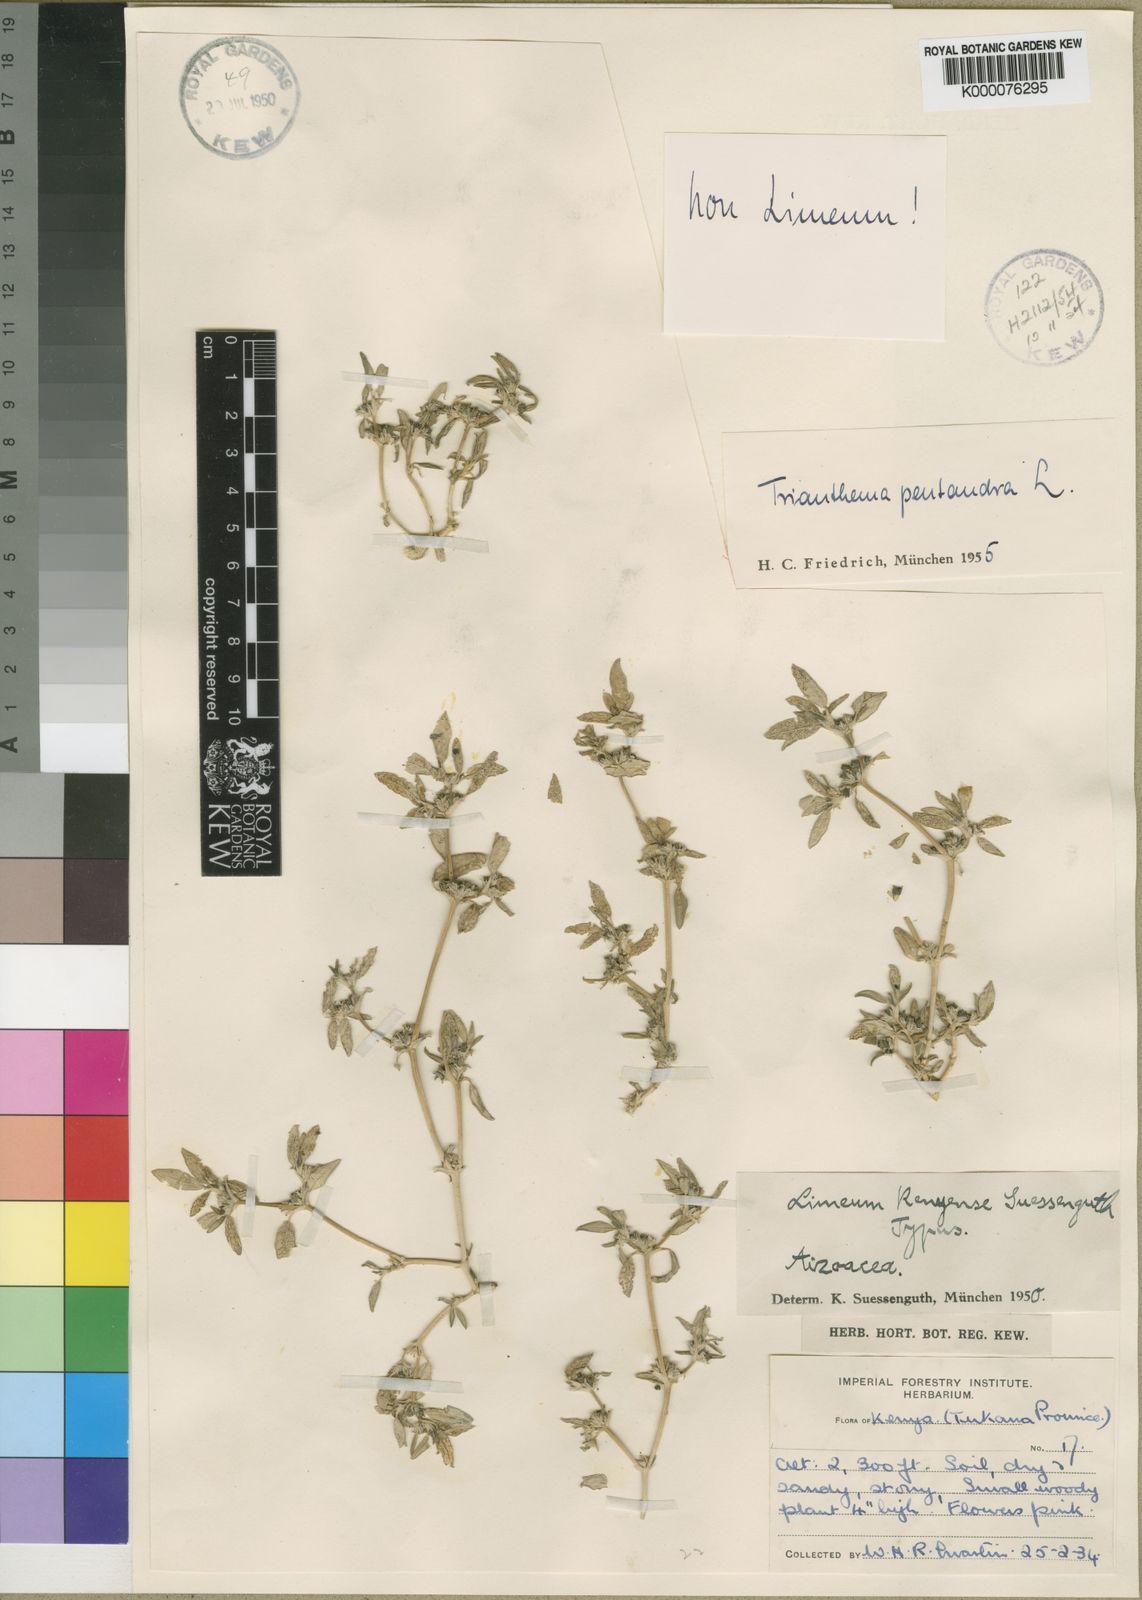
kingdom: Plantae
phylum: Tracheophyta
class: Magnoliopsida
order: Caryophyllales
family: Aizoaceae
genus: Zaleya
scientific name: Zaleya pentandra
